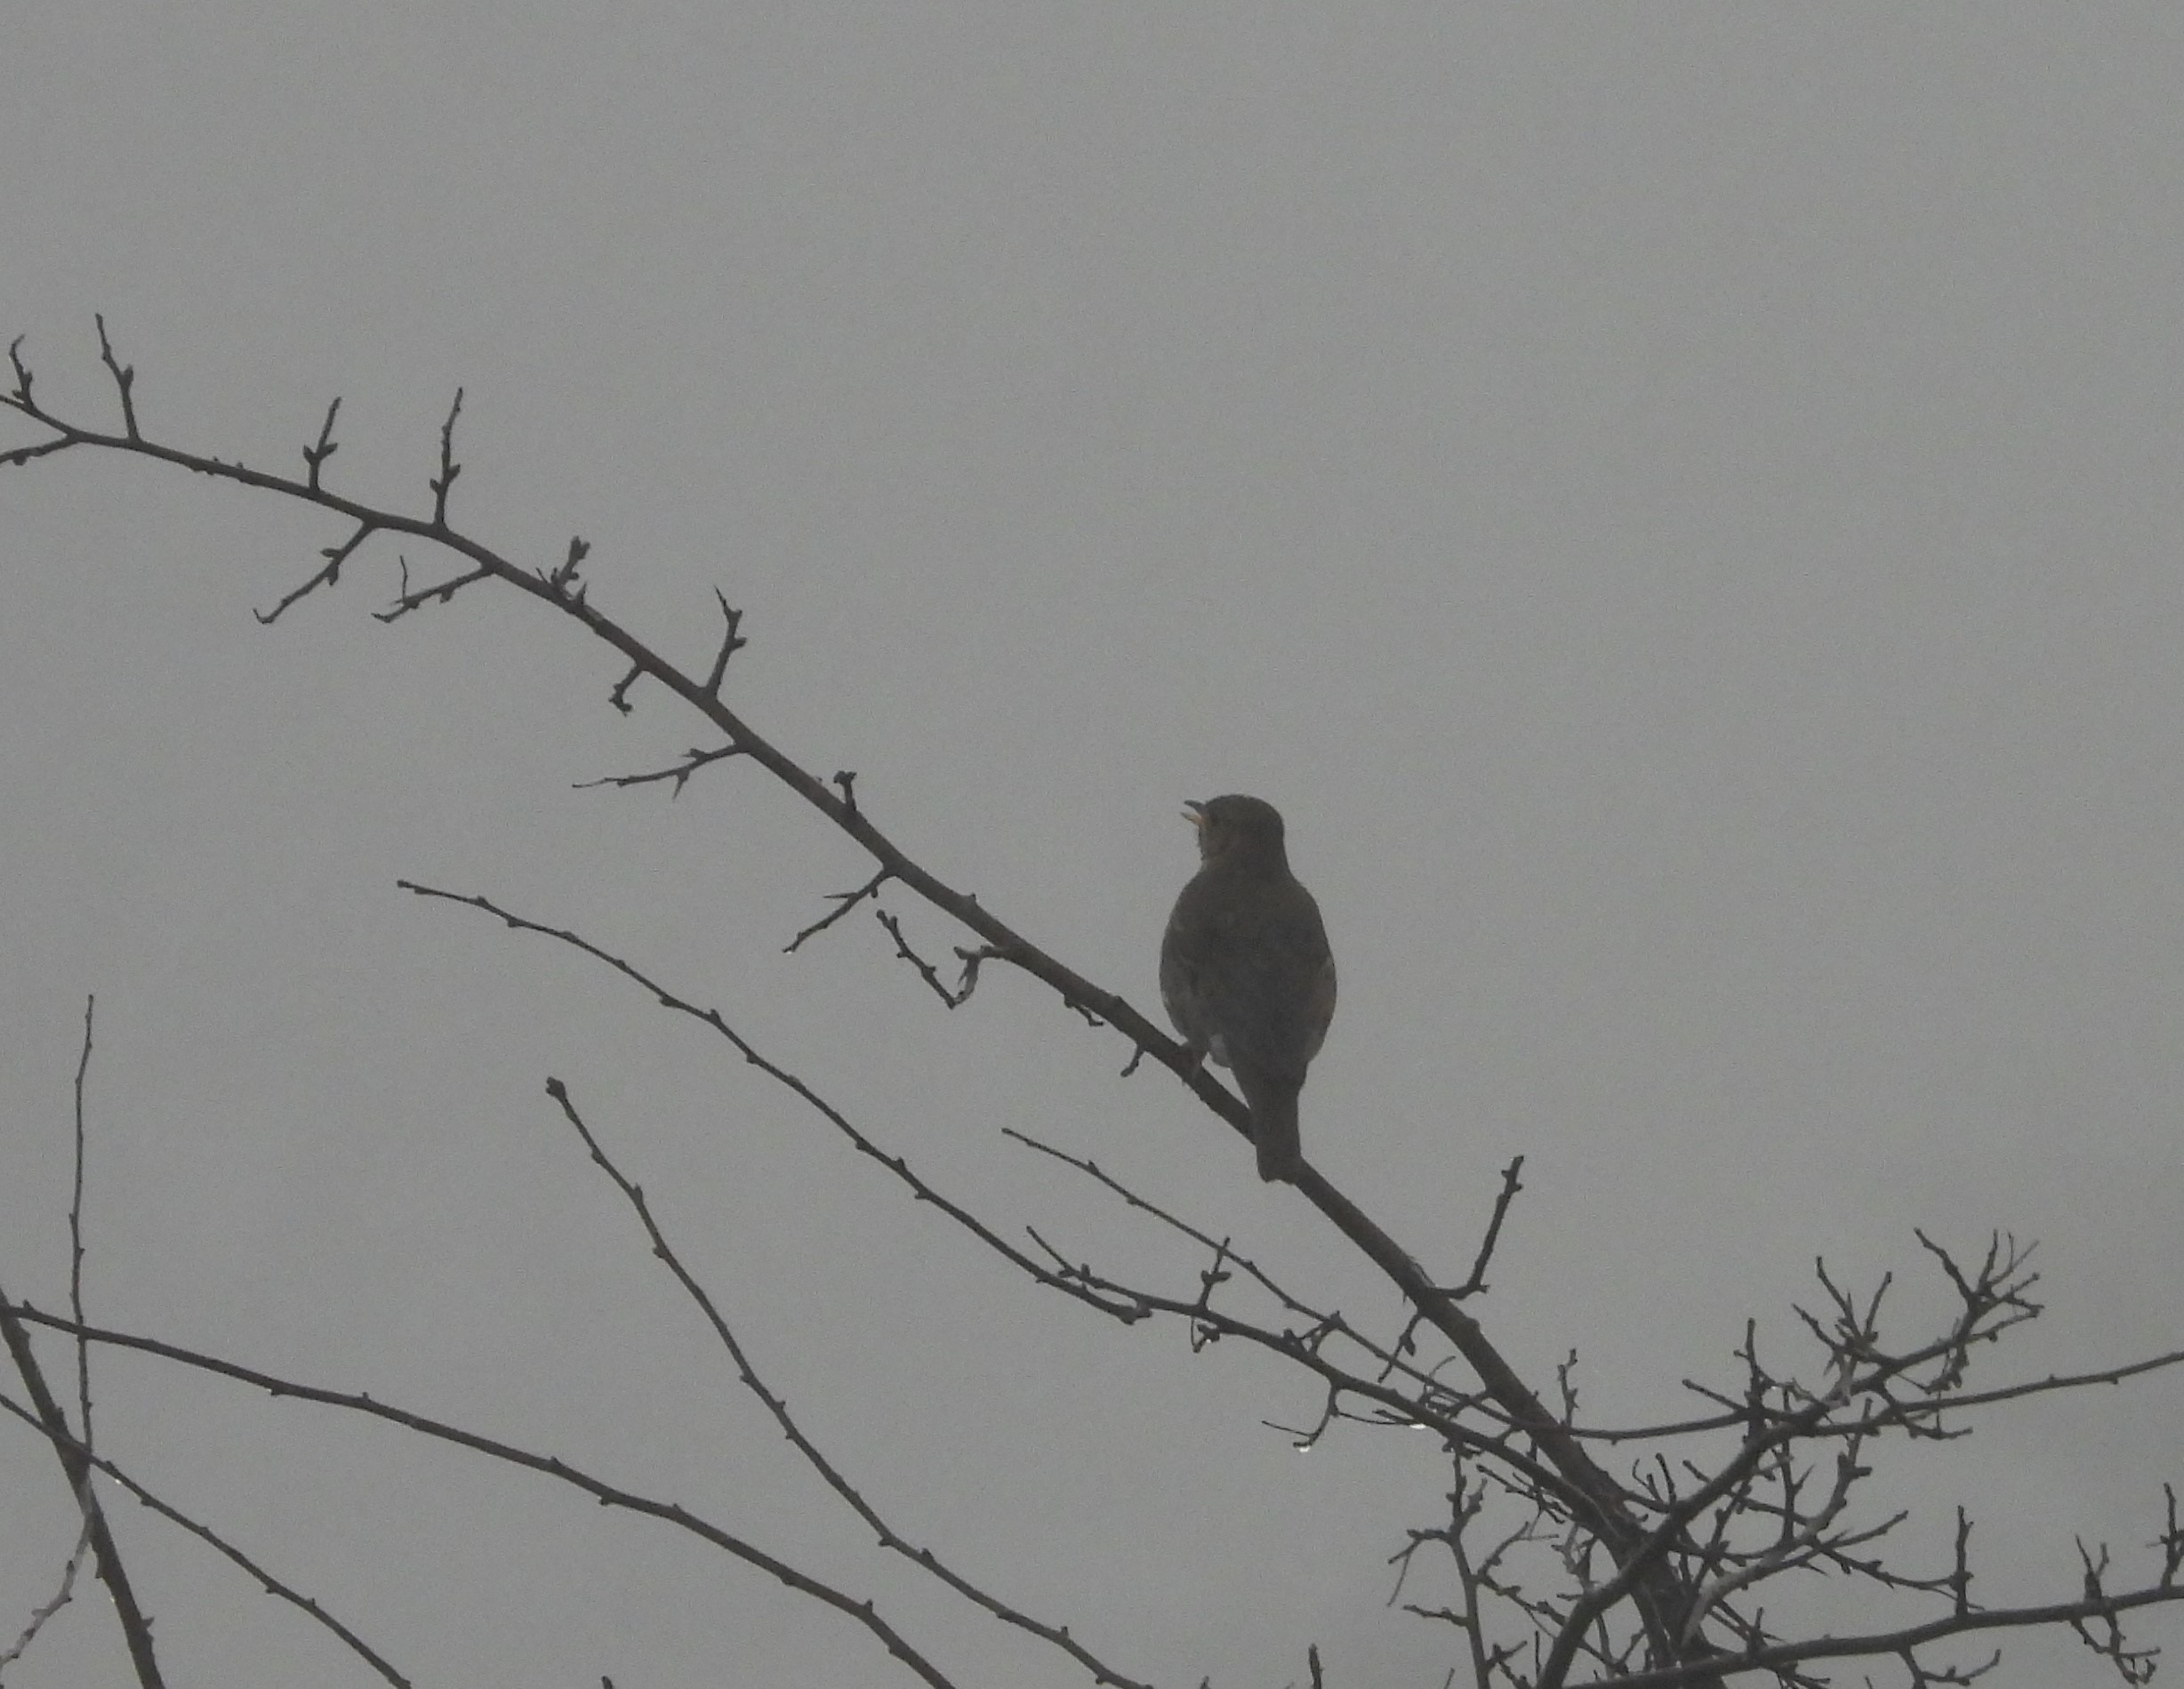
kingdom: Animalia
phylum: Chordata
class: Aves
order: Passeriformes
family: Turdidae
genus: Turdus
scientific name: Turdus philomelos
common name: Sangdrossel
